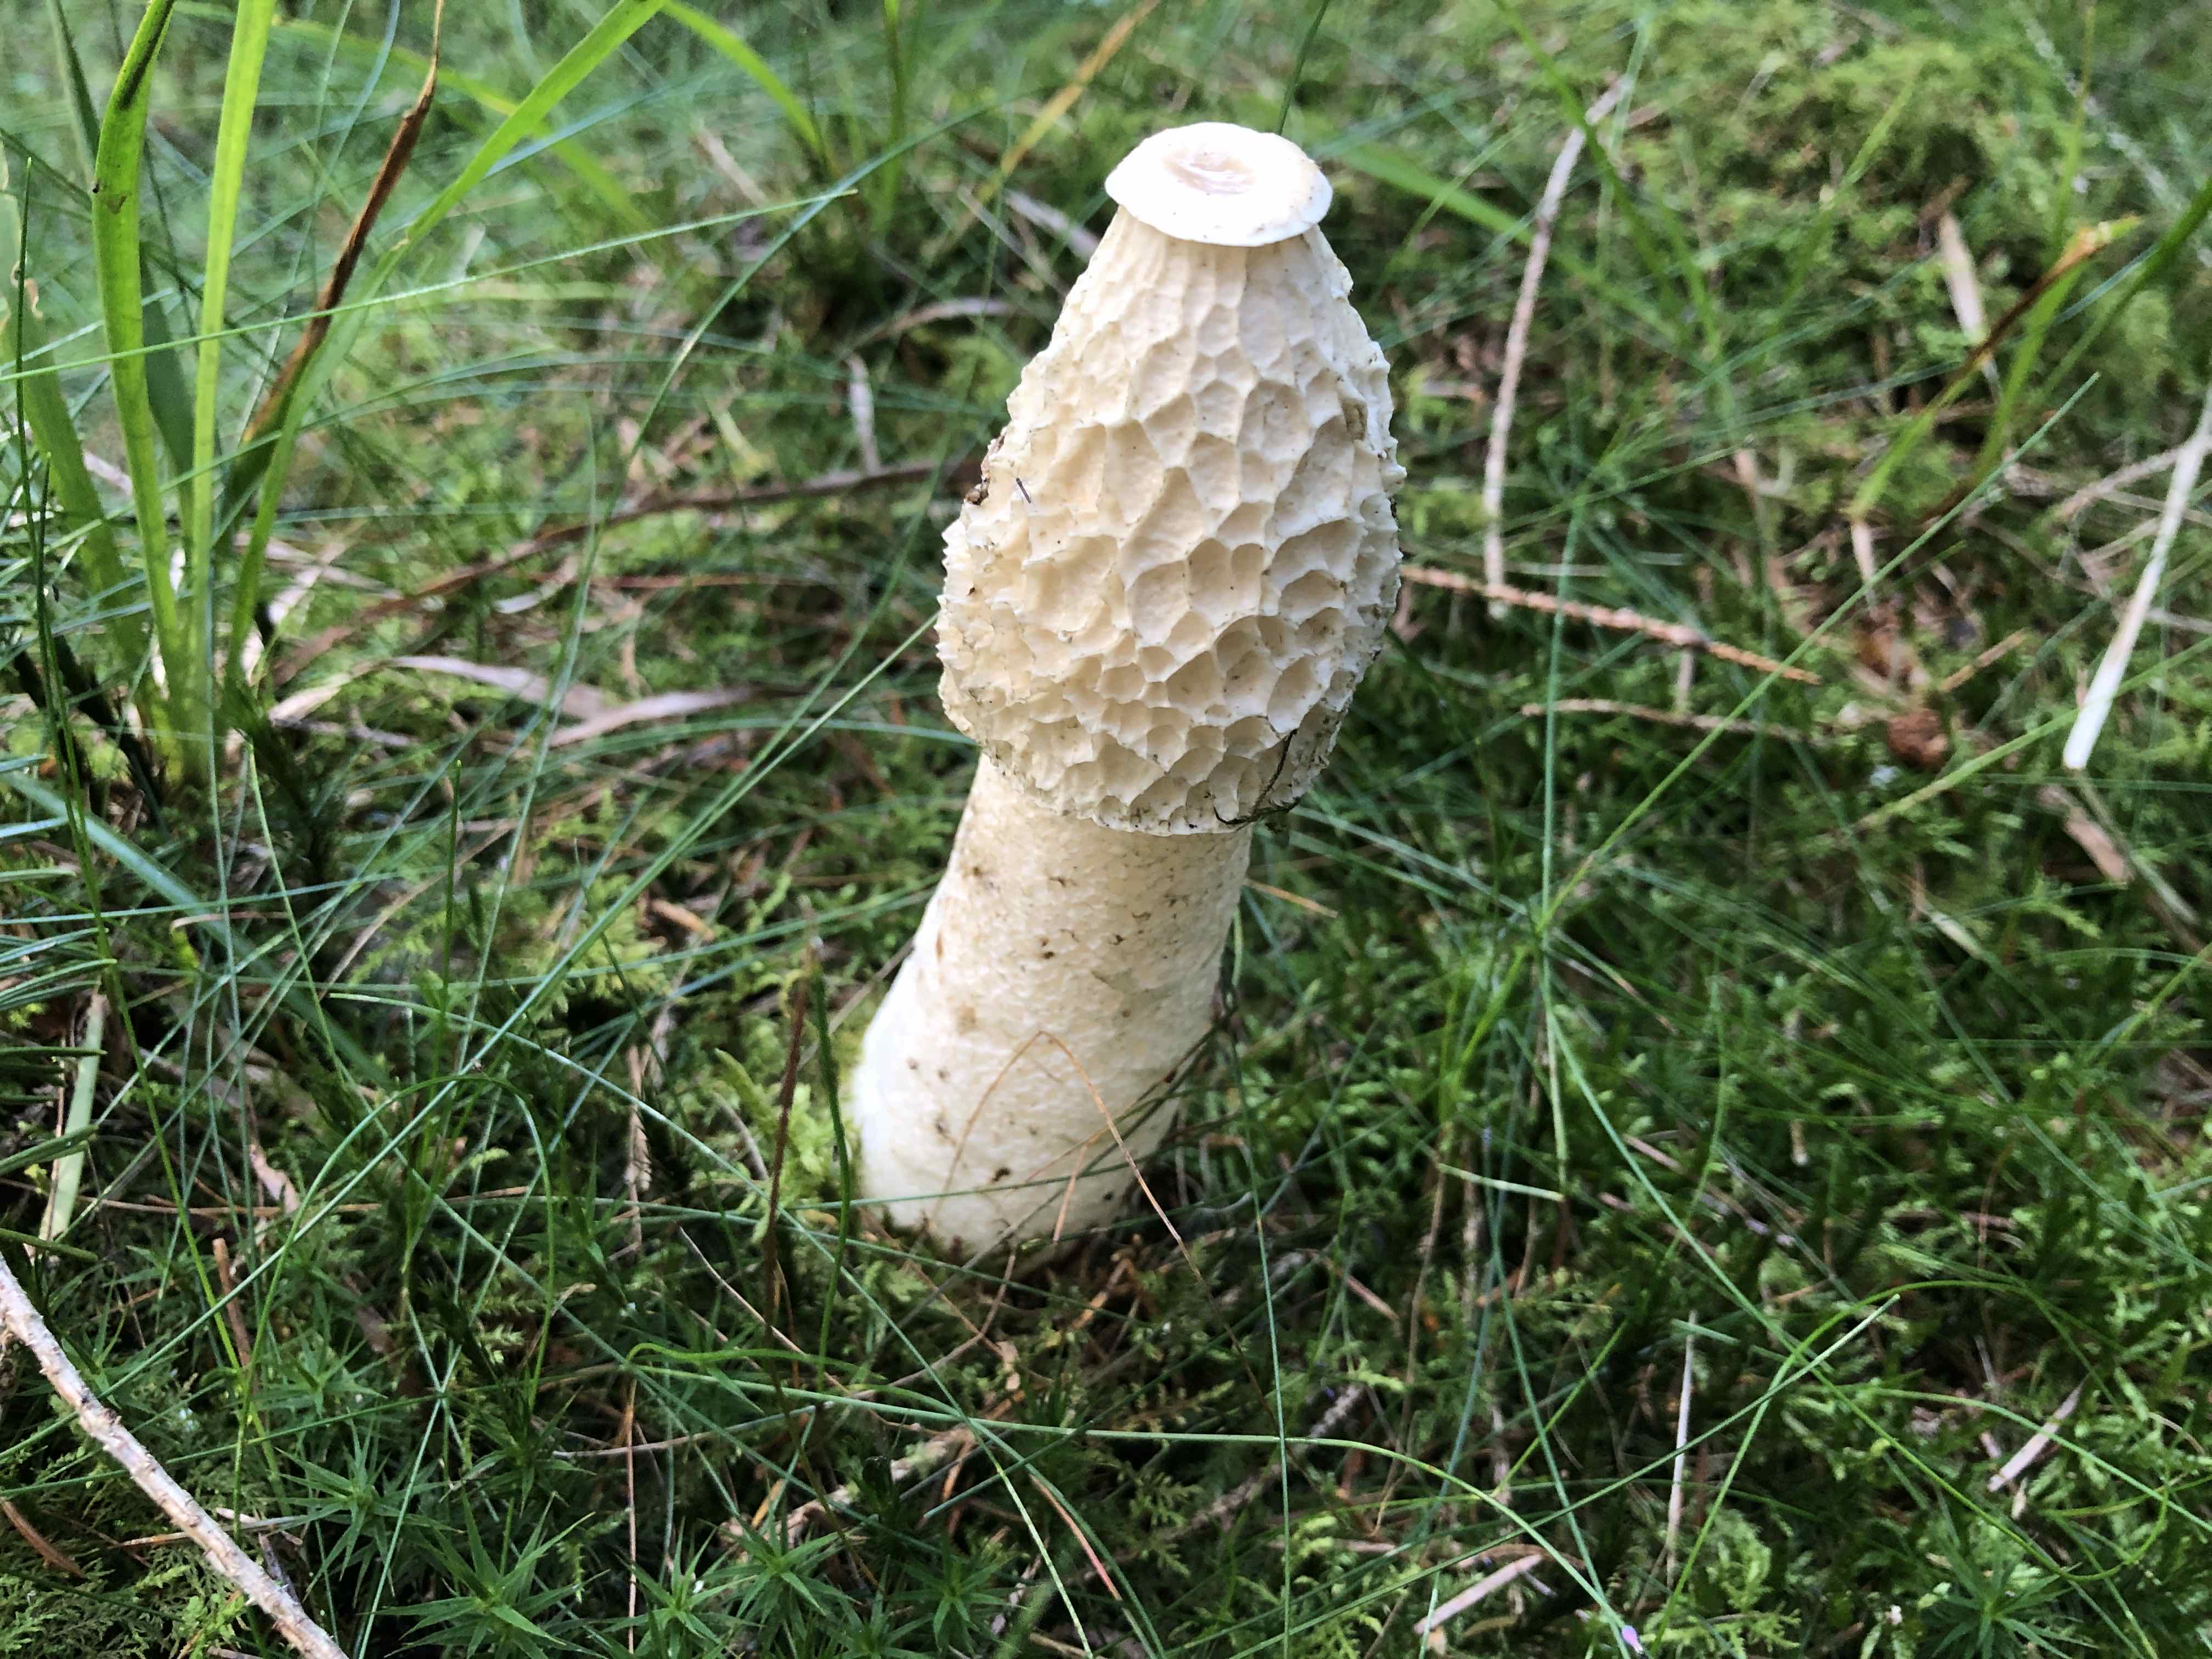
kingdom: Fungi
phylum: Basidiomycota
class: Agaricomycetes
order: Phallales
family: Phallaceae
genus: Phallus
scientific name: Phallus impudicus
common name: almindelig stinksvamp
